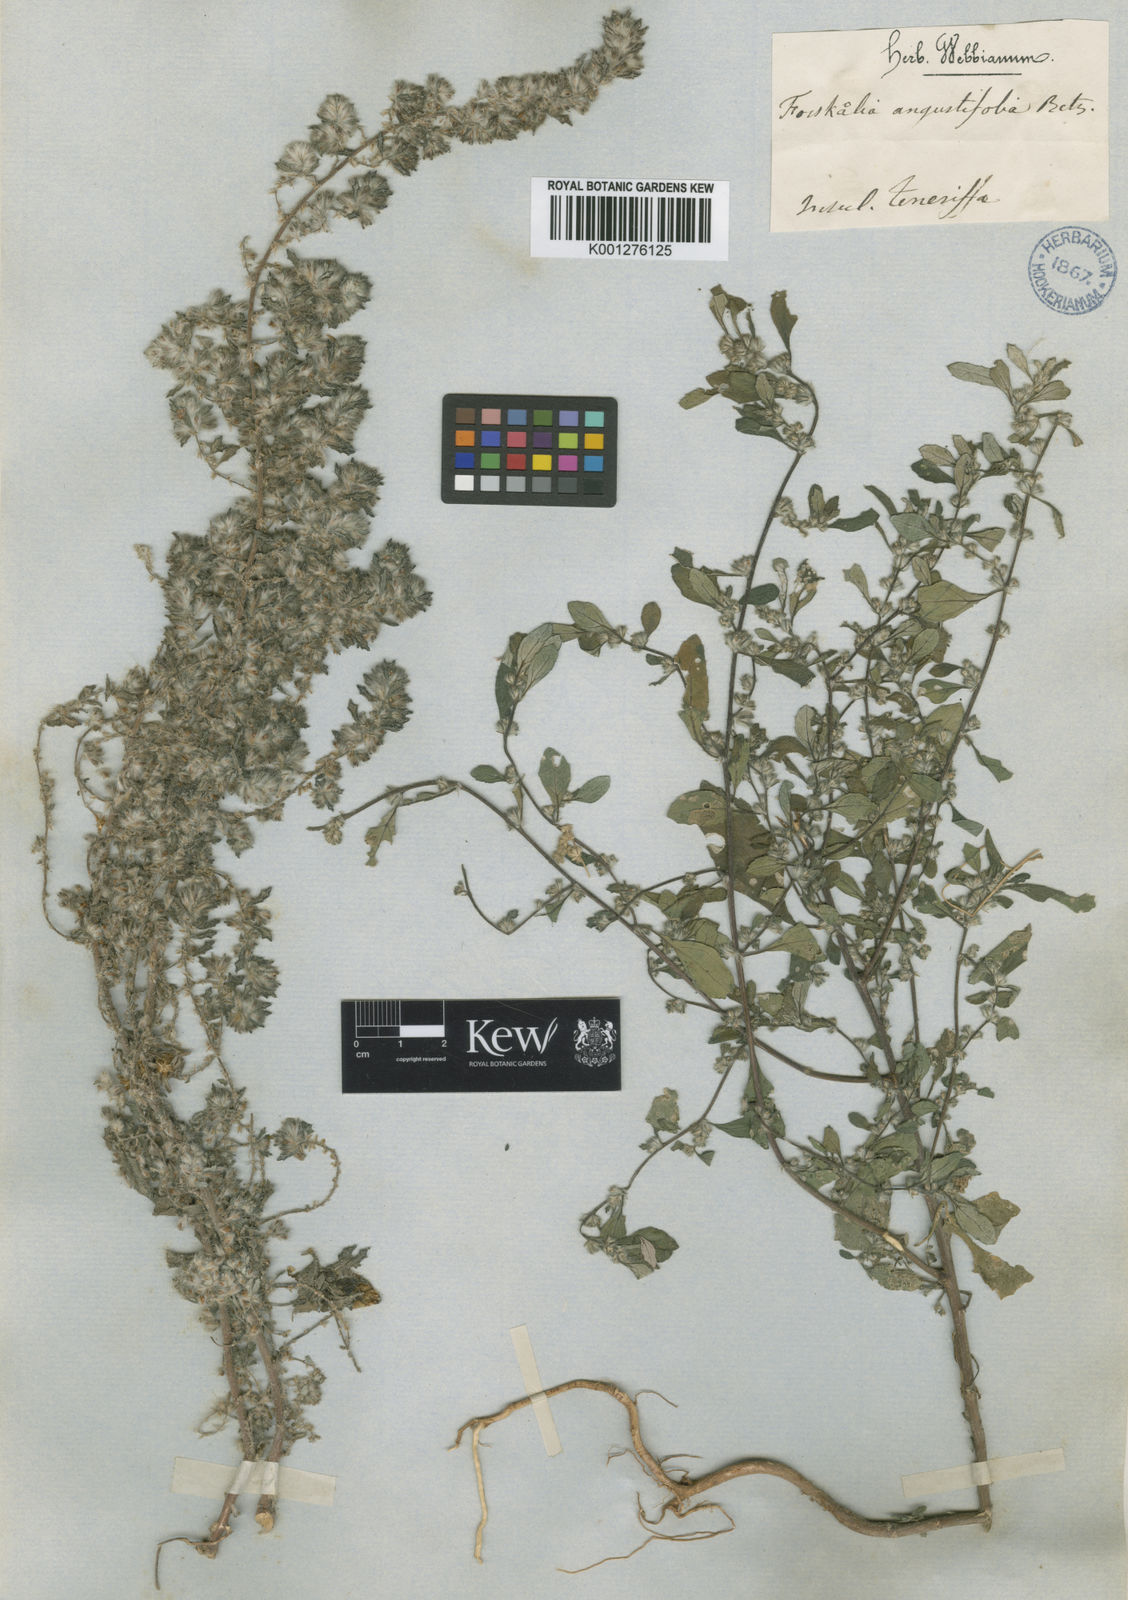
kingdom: Plantae
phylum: Tracheophyta
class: Magnoliopsida
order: Rosales
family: Urticaceae
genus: Forsskaolea
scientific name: Forsskaolea angustifolia
